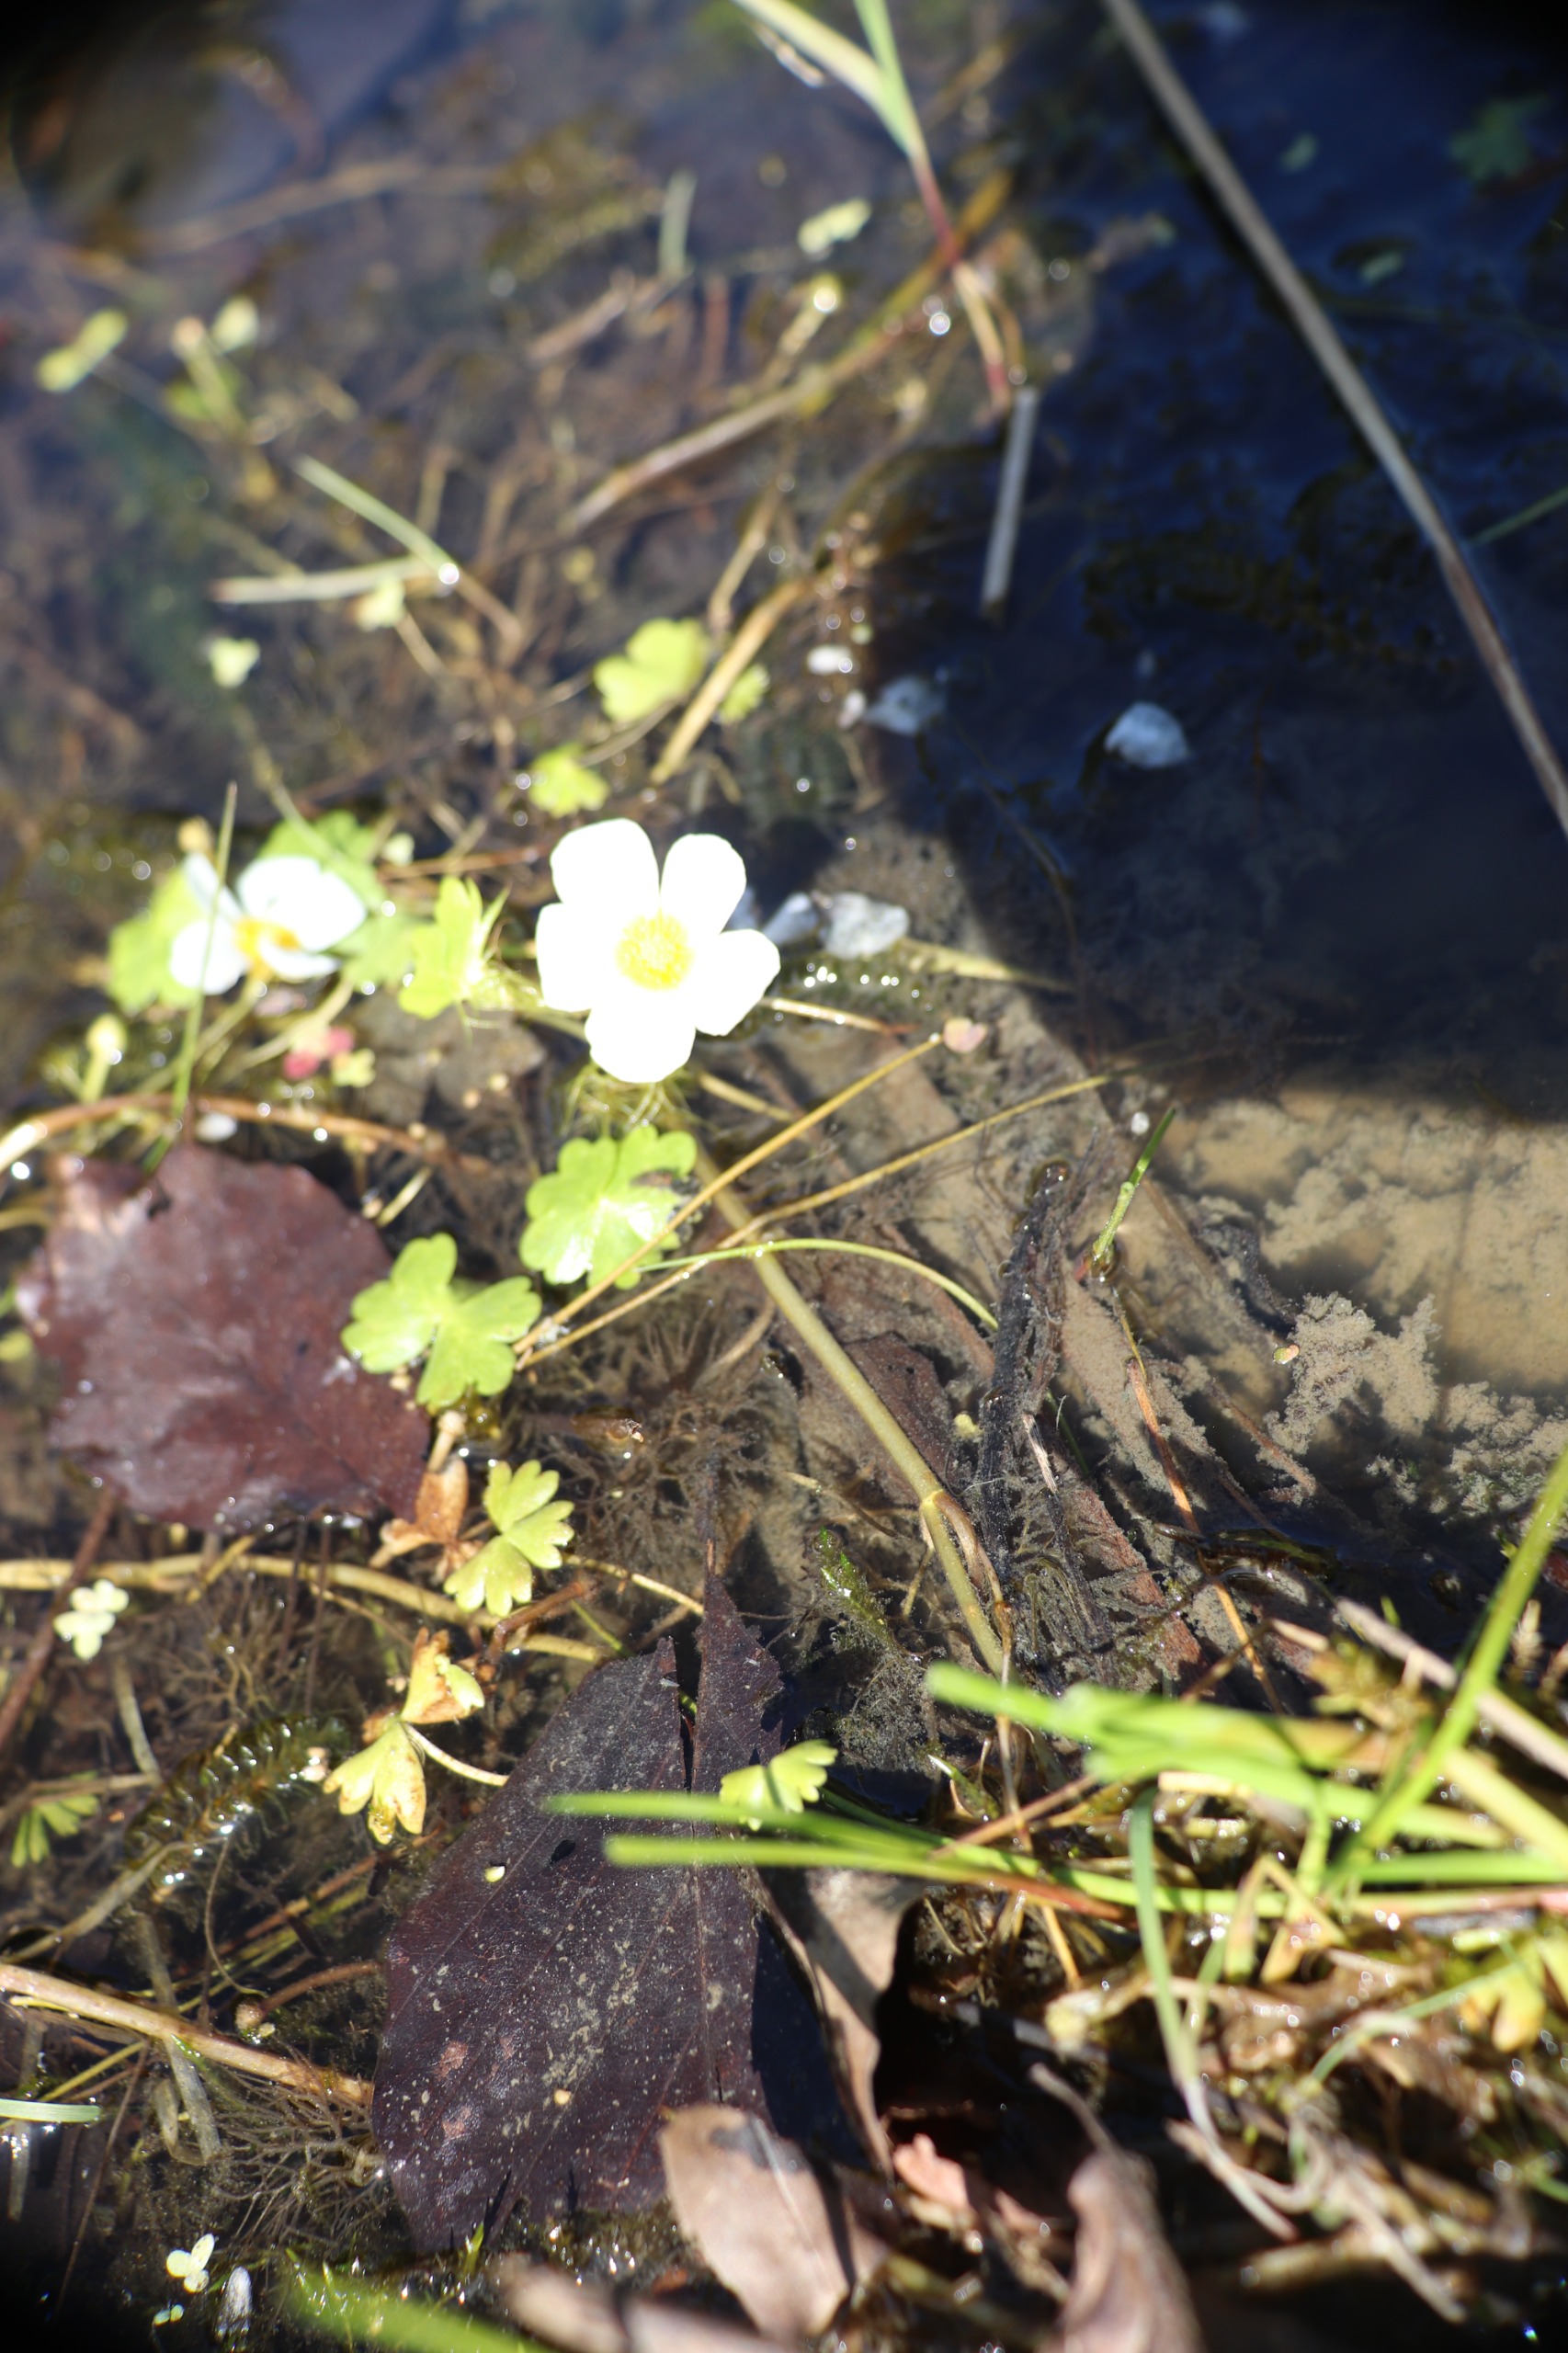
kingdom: Plantae
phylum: Tracheophyta
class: Magnoliopsida
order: Ranunculales
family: Ranunculaceae
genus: Ranunculus
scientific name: Ranunculus peltatus
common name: Storblomstret vandranunkel
